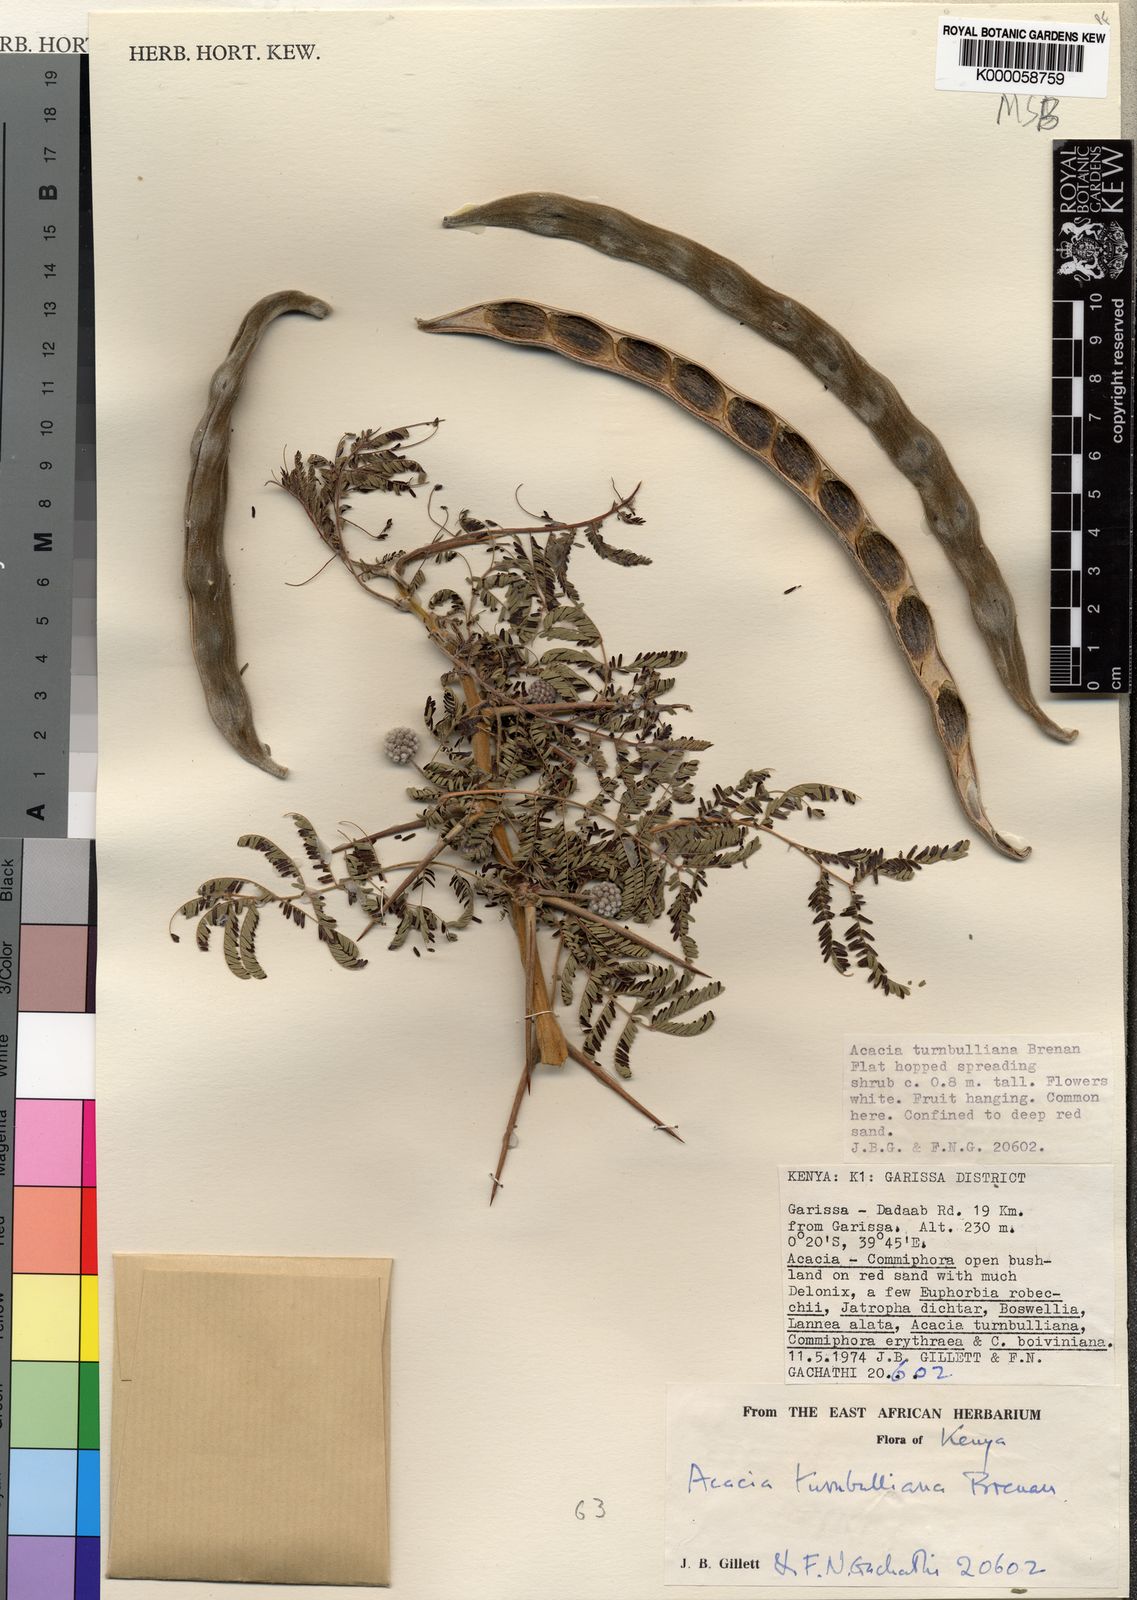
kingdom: Plantae
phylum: Tracheophyta
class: Magnoliopsida
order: Fabales
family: Fabaceae
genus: Vachellia
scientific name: Vachellia edgeworthii
